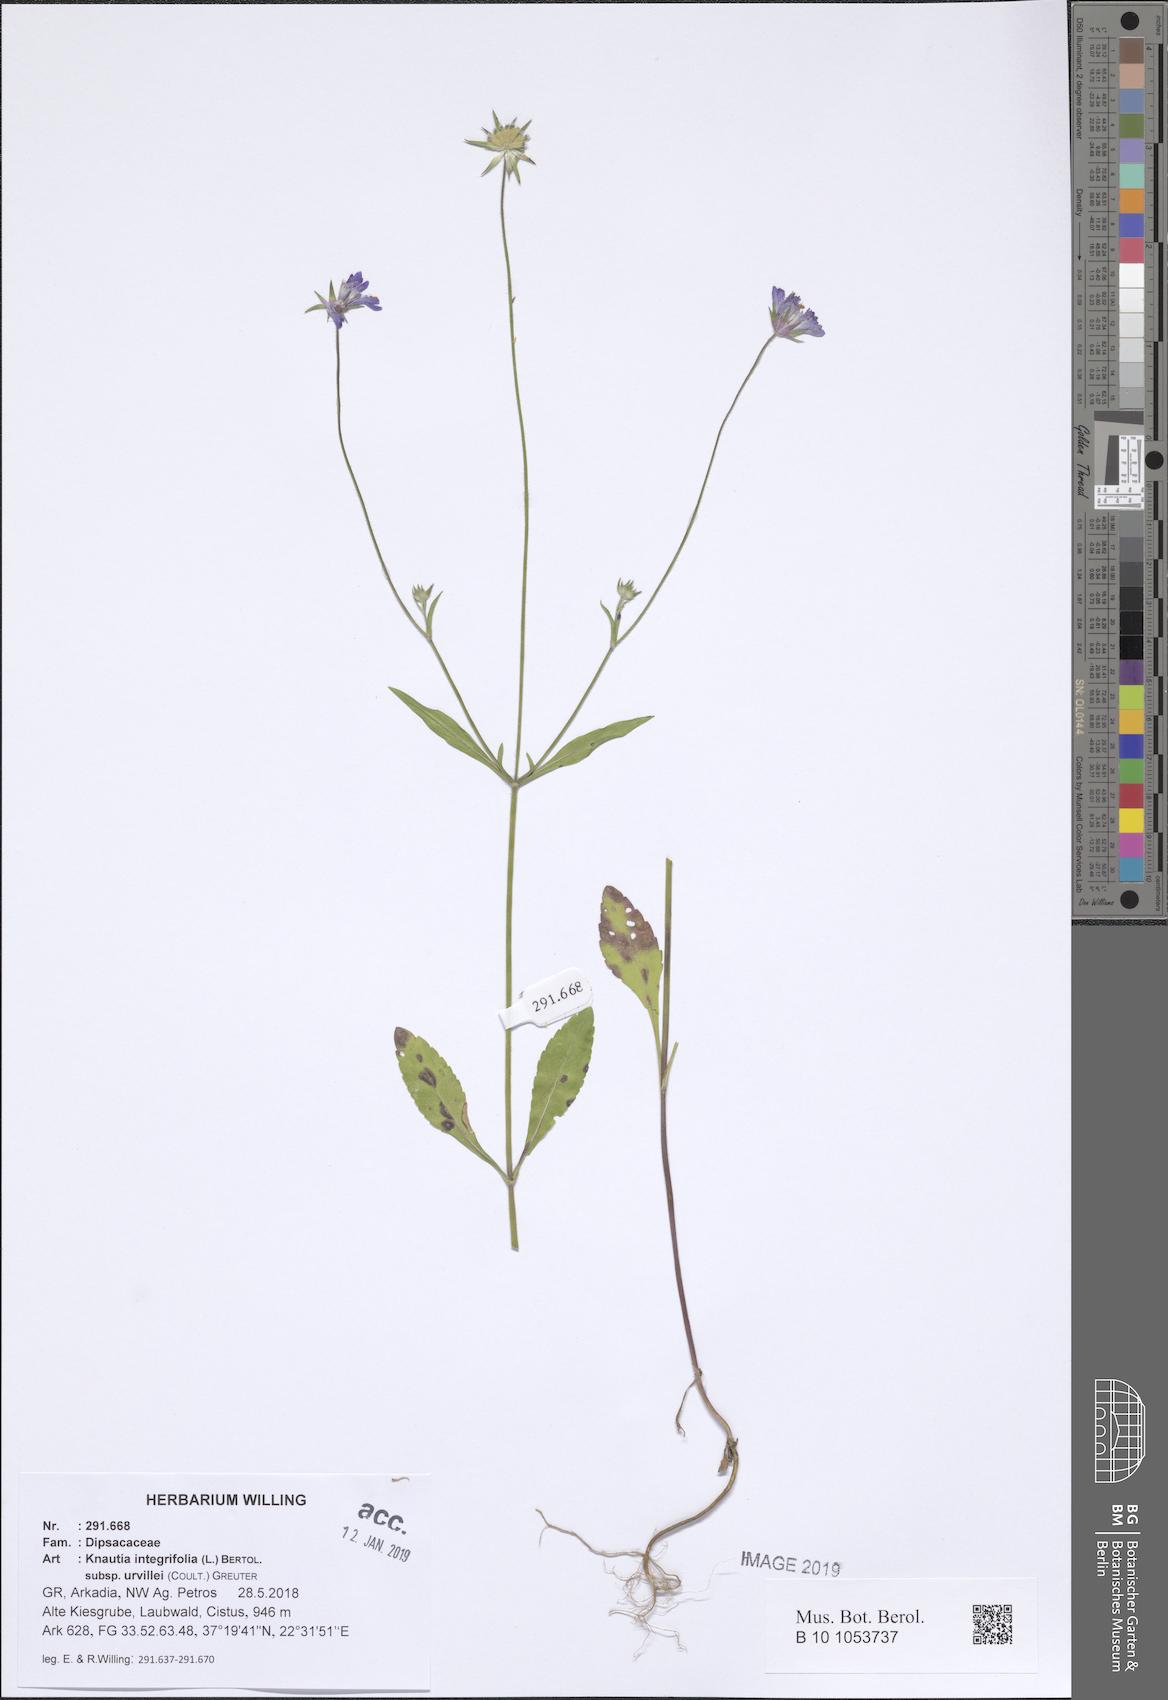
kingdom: Plantae
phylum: Tracheophyta
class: Magnoliopsida
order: Dipsacales
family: Caprifoliaceae
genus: Knautia
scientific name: Knautia integrifolia
